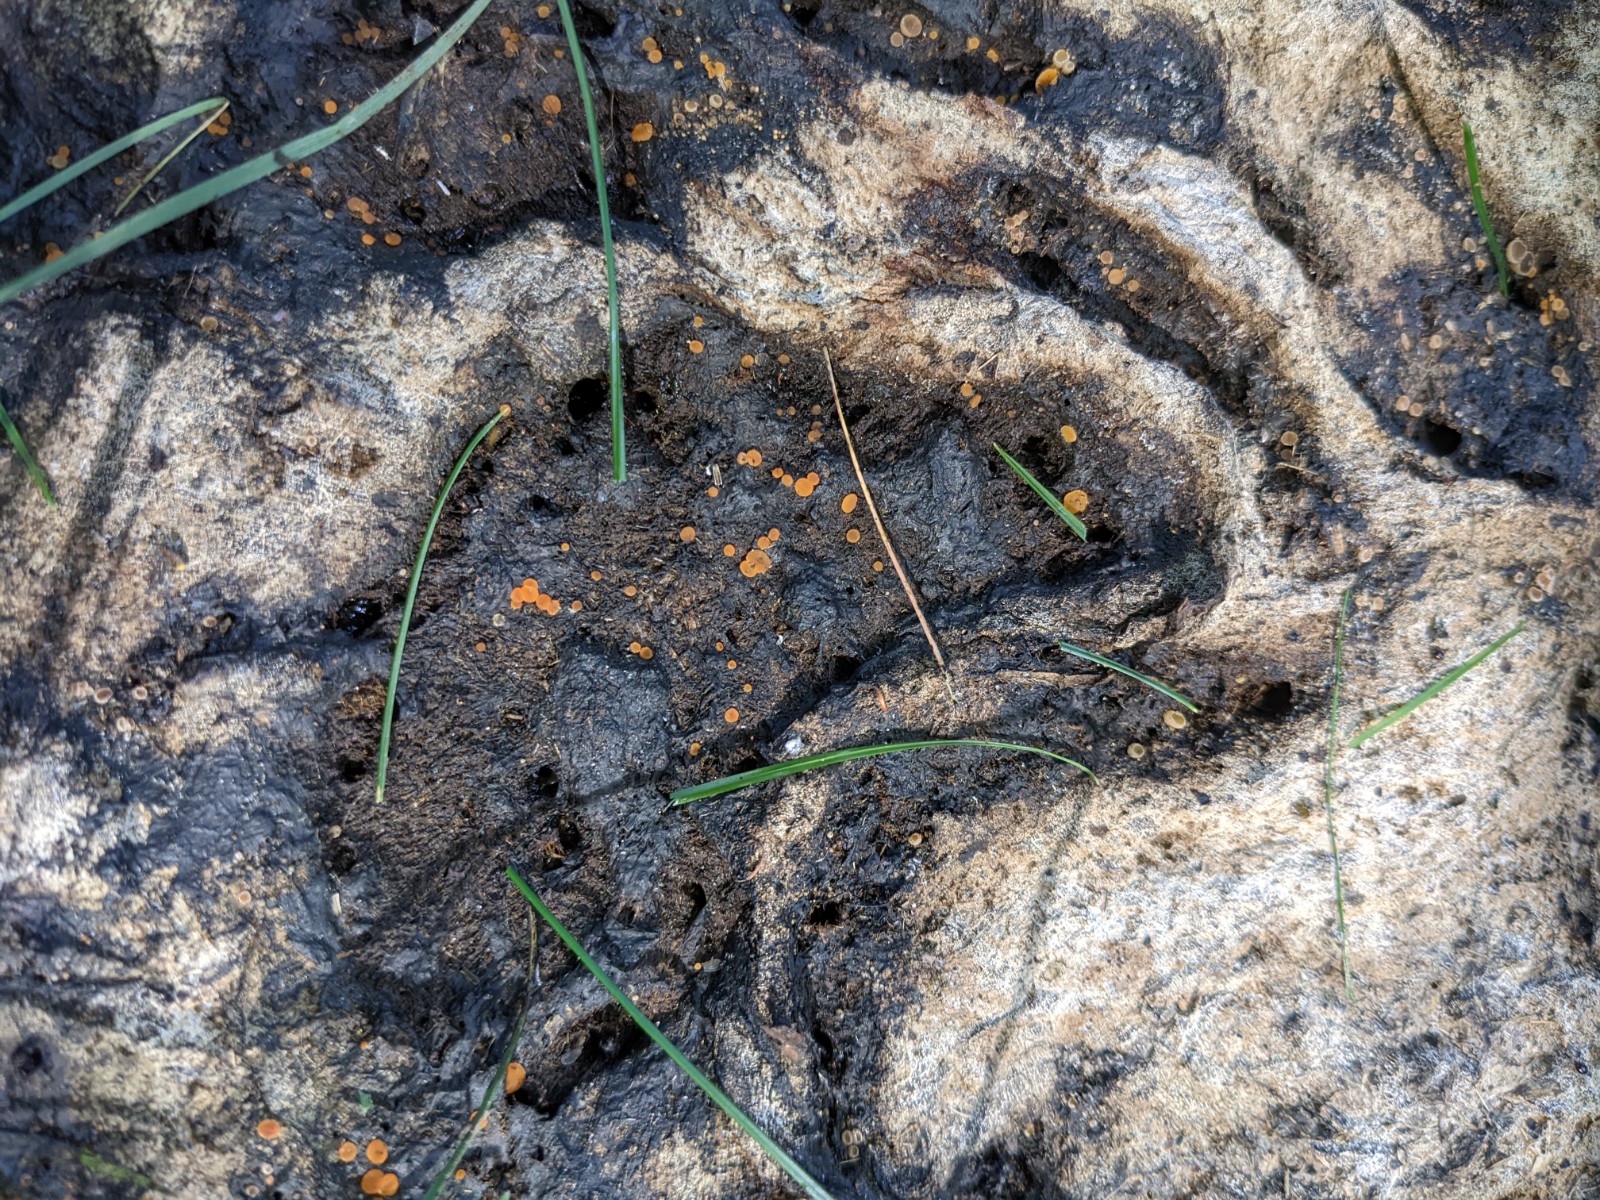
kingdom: Fungi
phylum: Ascomycota
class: Pezizomycetes
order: Pezizales
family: Pyronemataceae
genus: Cheilymenia
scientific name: Cheilymenia granulata
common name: møgbæger
